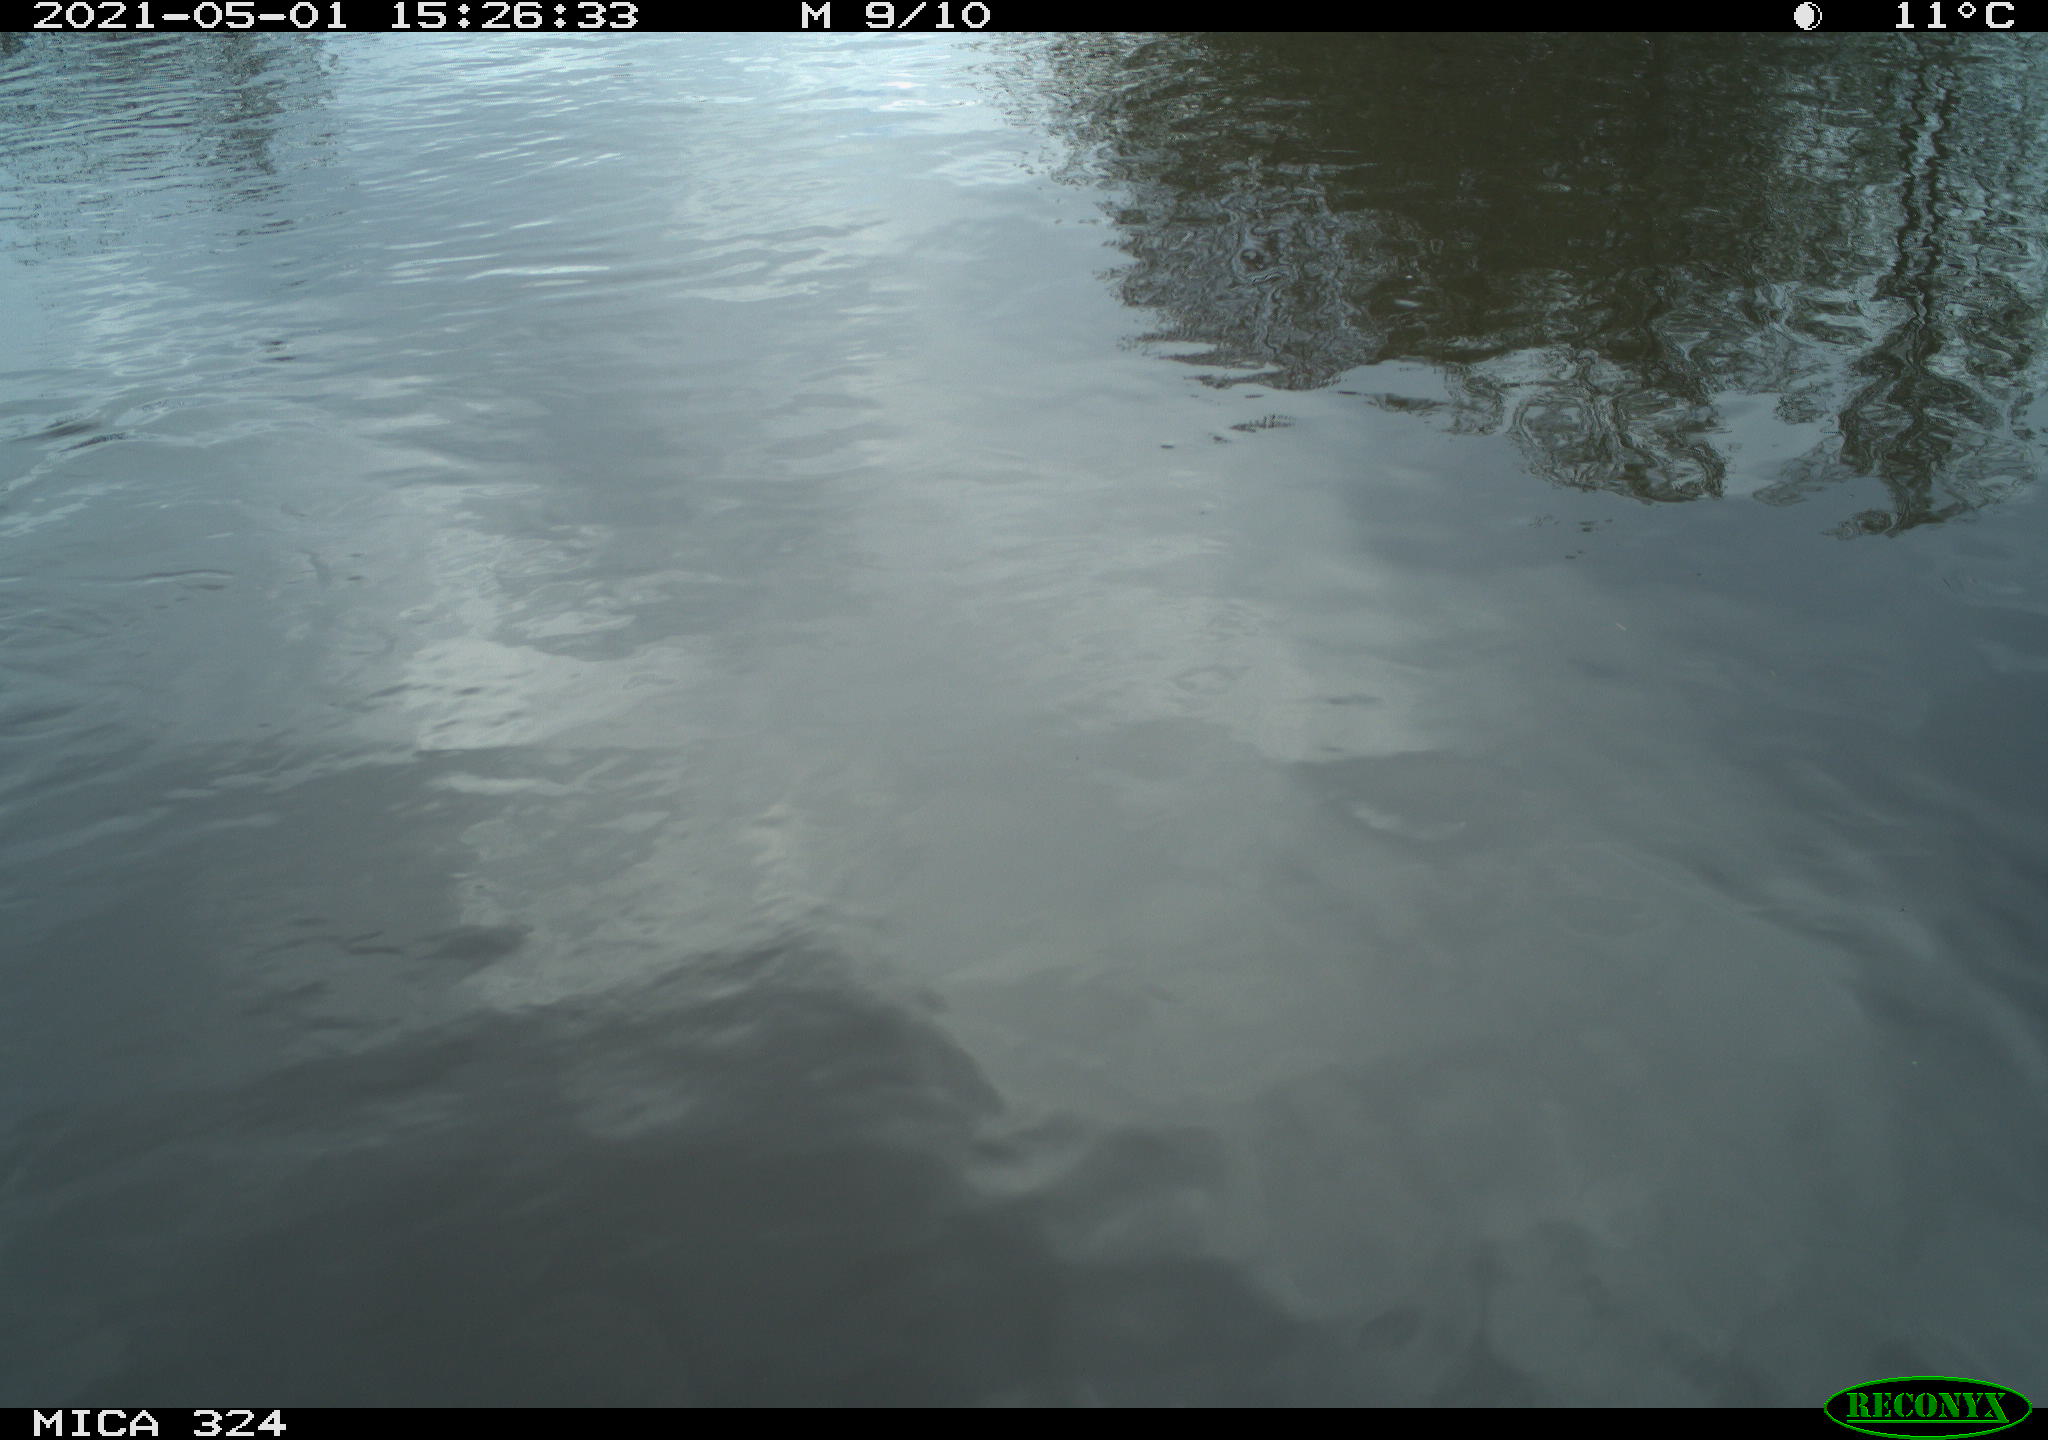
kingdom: Animalia
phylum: Chordata
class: Aves
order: Gruiformes
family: Rallidae
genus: Gallinula
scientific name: Gallinula chloropus
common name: Common moorhen
